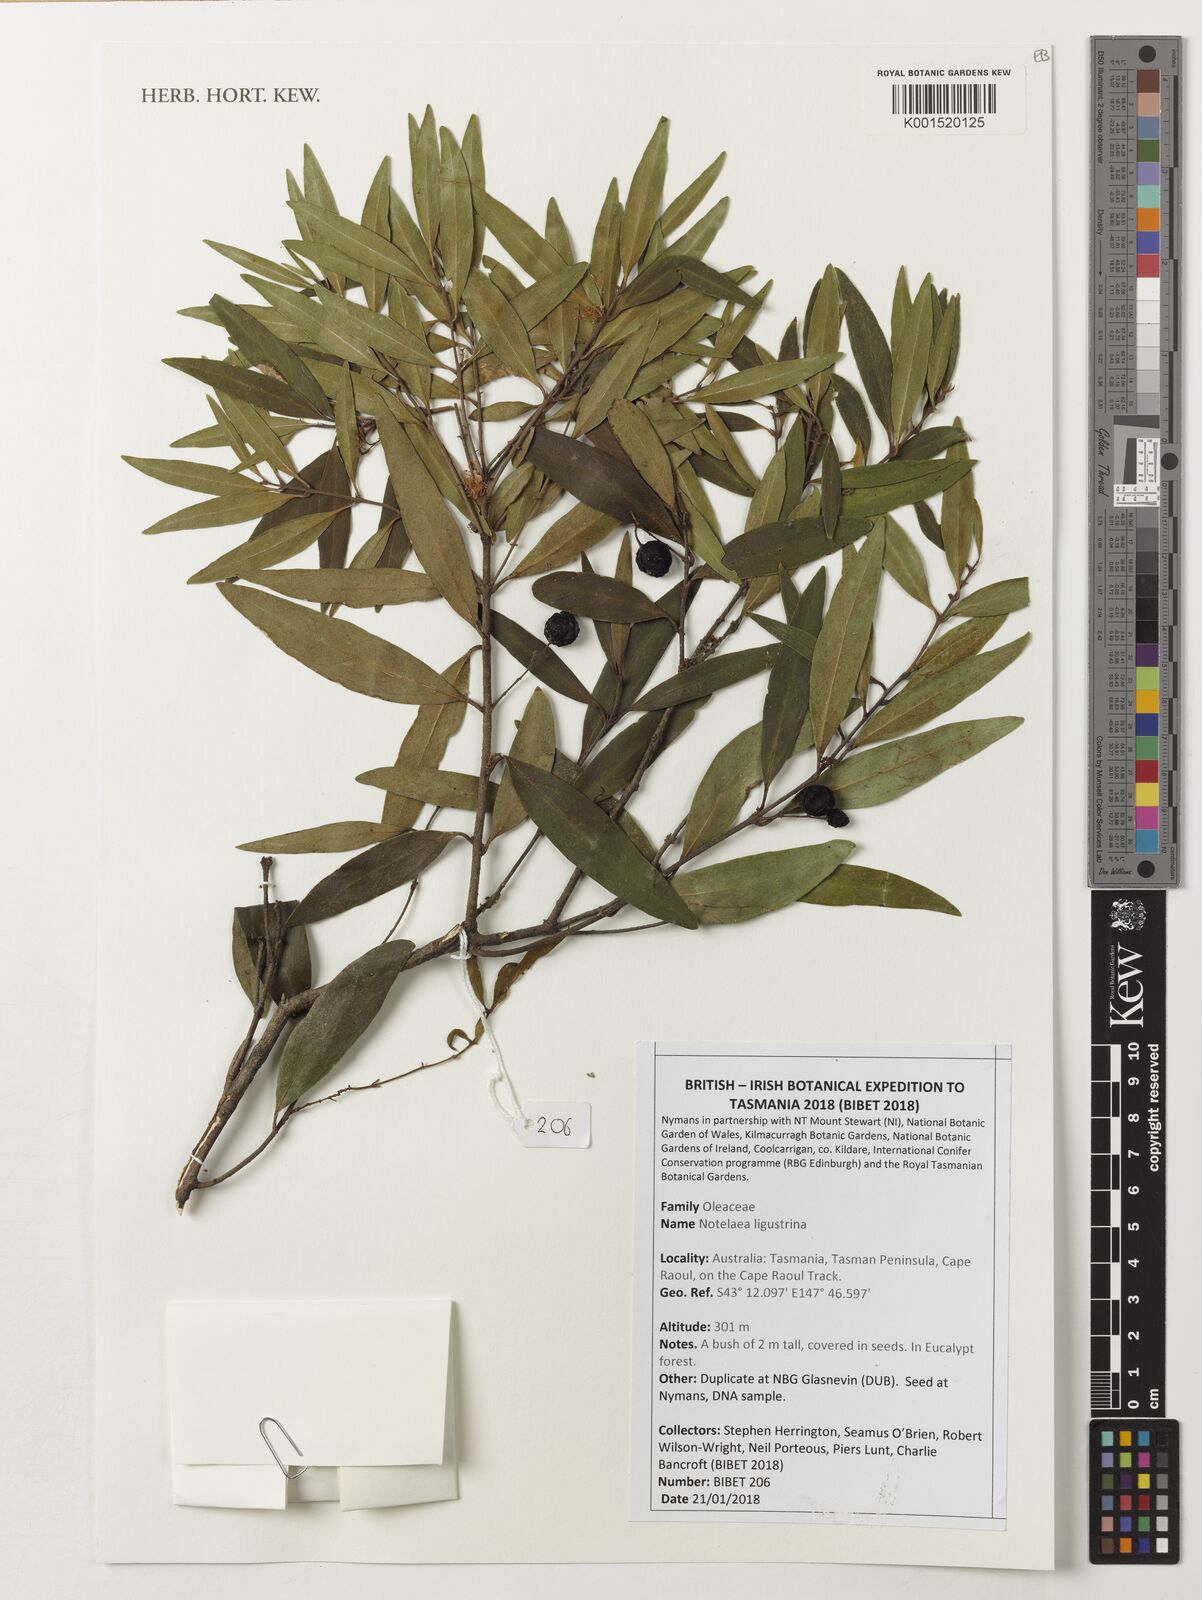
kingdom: Plantae
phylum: Tracheophyta
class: Magnoliopsida
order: Lamiales
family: Oleaceae
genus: Notelaea
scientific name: Notelaea ligustrina
